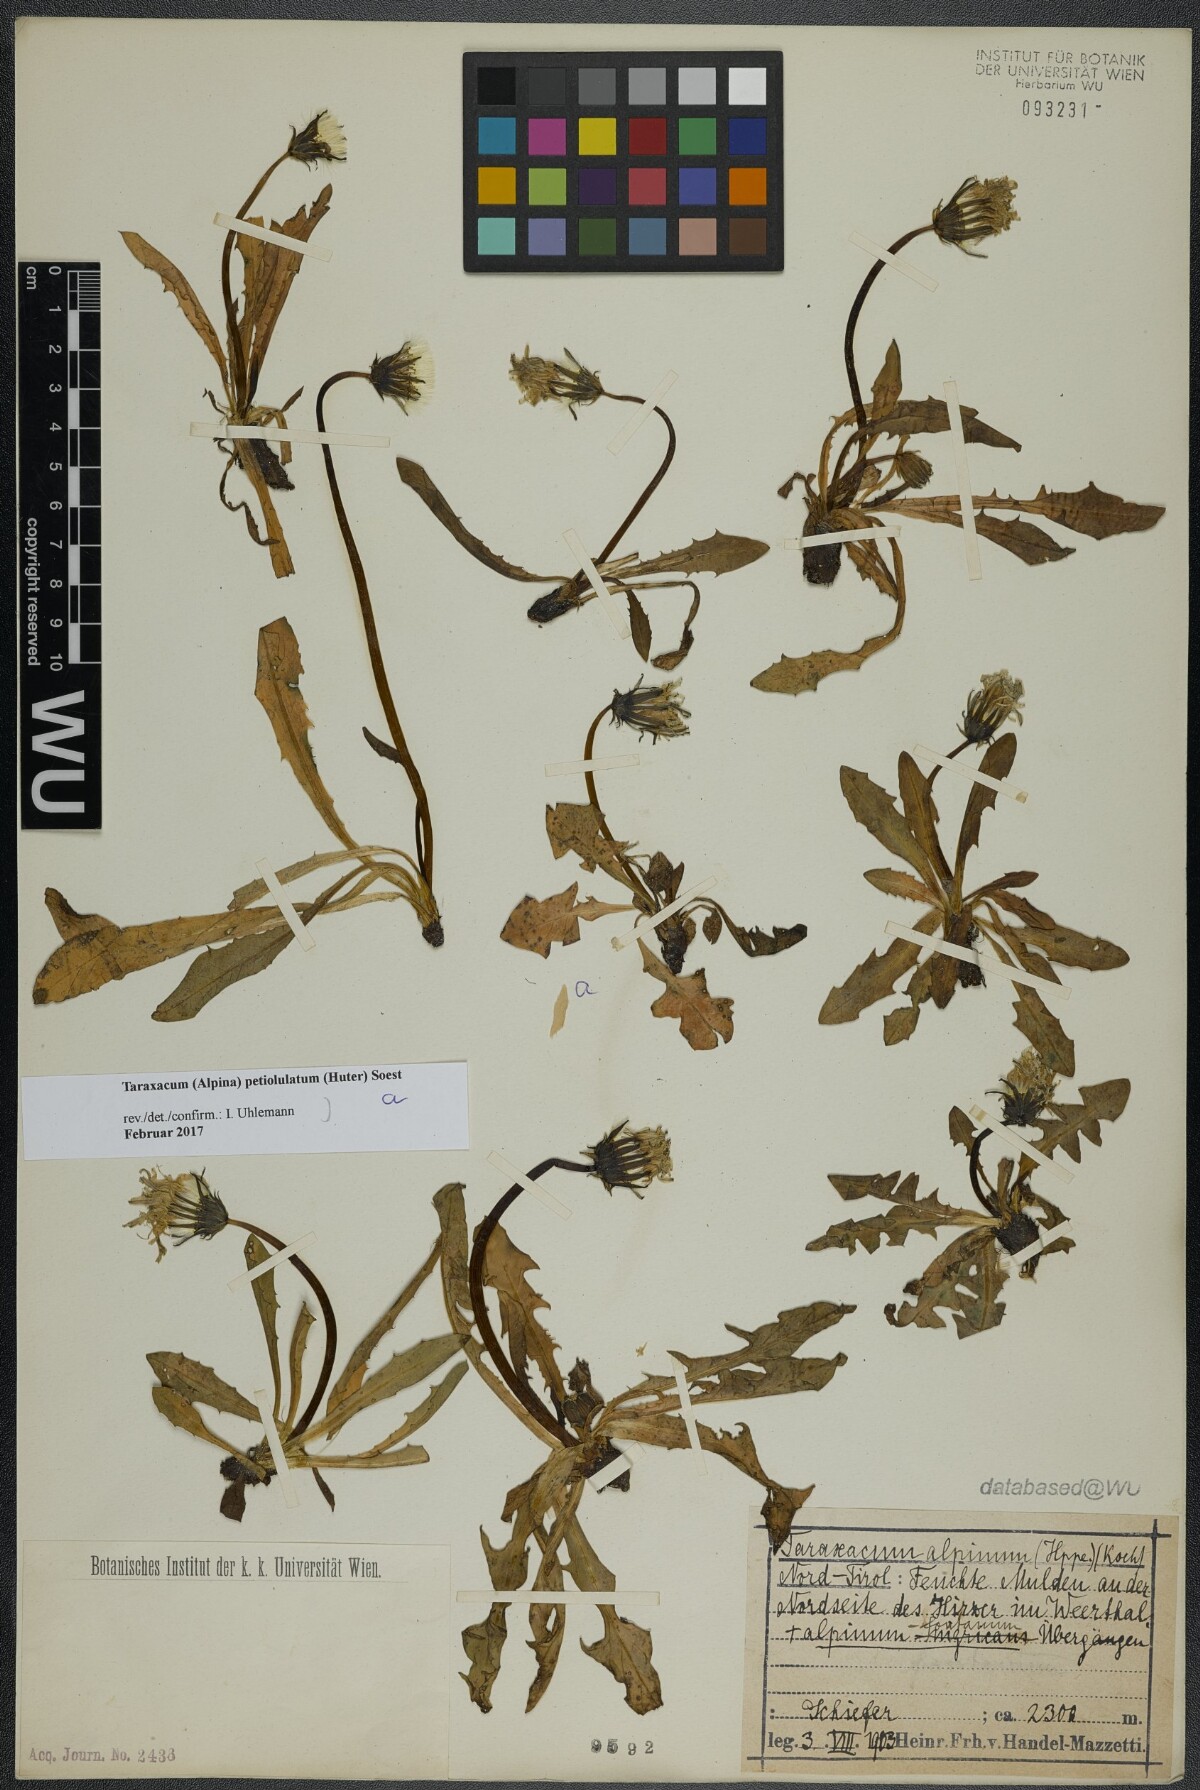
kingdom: Plantae
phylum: Tracheophyta
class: Magnoliopsida
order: Asterales
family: Asteraceae
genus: Taraxacum
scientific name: Taraxacum petiolulatum
